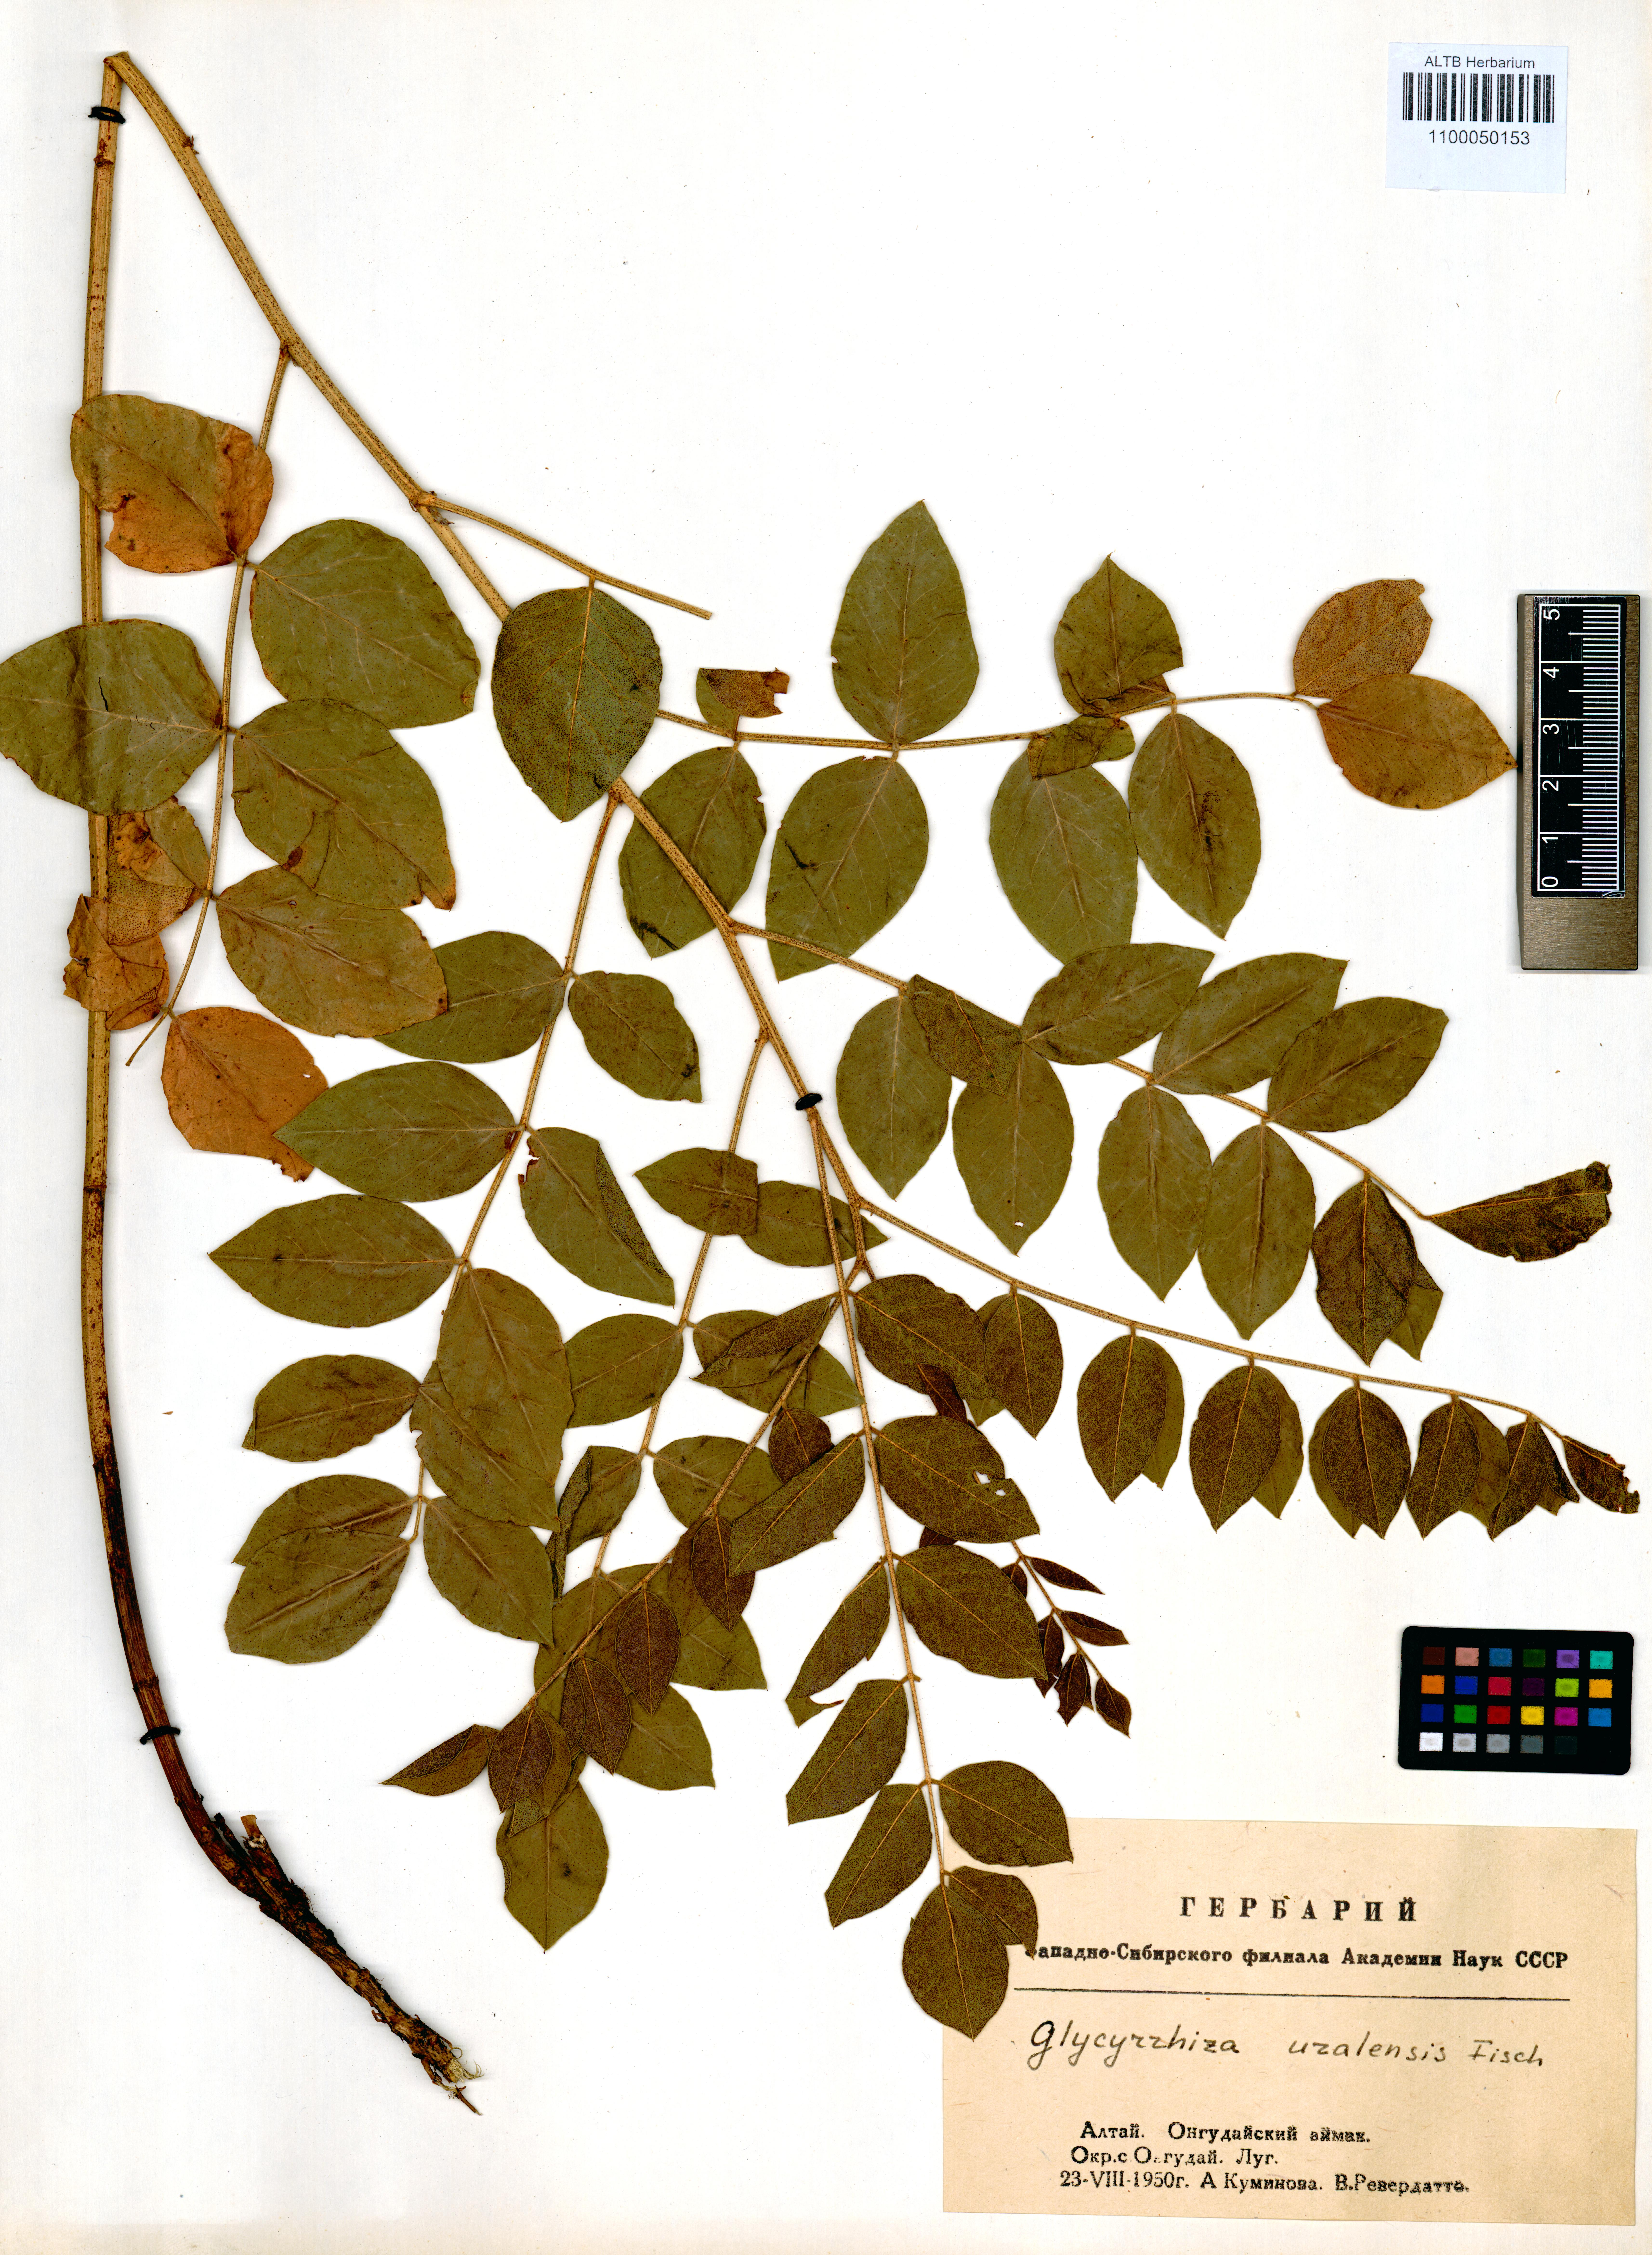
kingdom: Plantae
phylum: Tracheophyta
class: Magnoliopsida
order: Fabales
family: Fabaceae
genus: Glycyrrhiza
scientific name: Glycyrrhiza uralensis
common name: Chinese licorice
